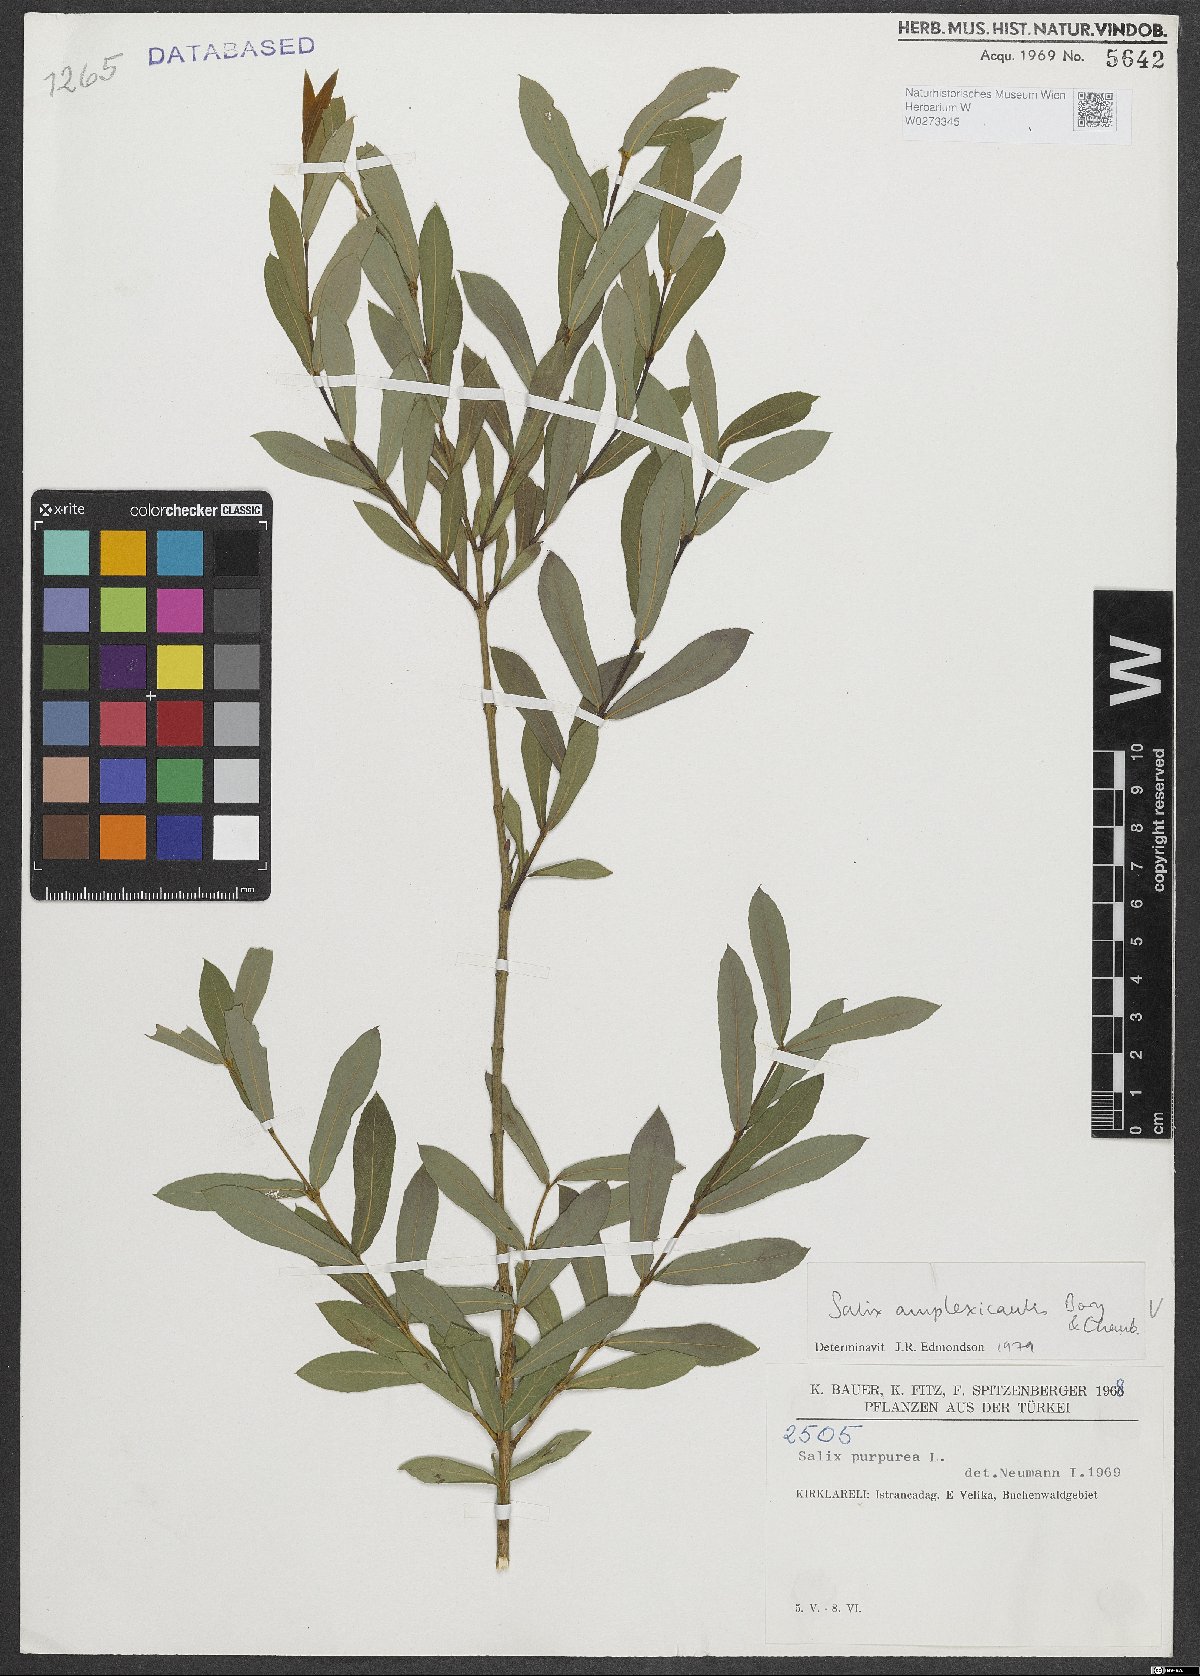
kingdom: Plantae
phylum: Tracheophyta
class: Magnoliopsida
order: Malpighiales
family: Salicaceae
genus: Salix
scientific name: Salix amplexicaulis
